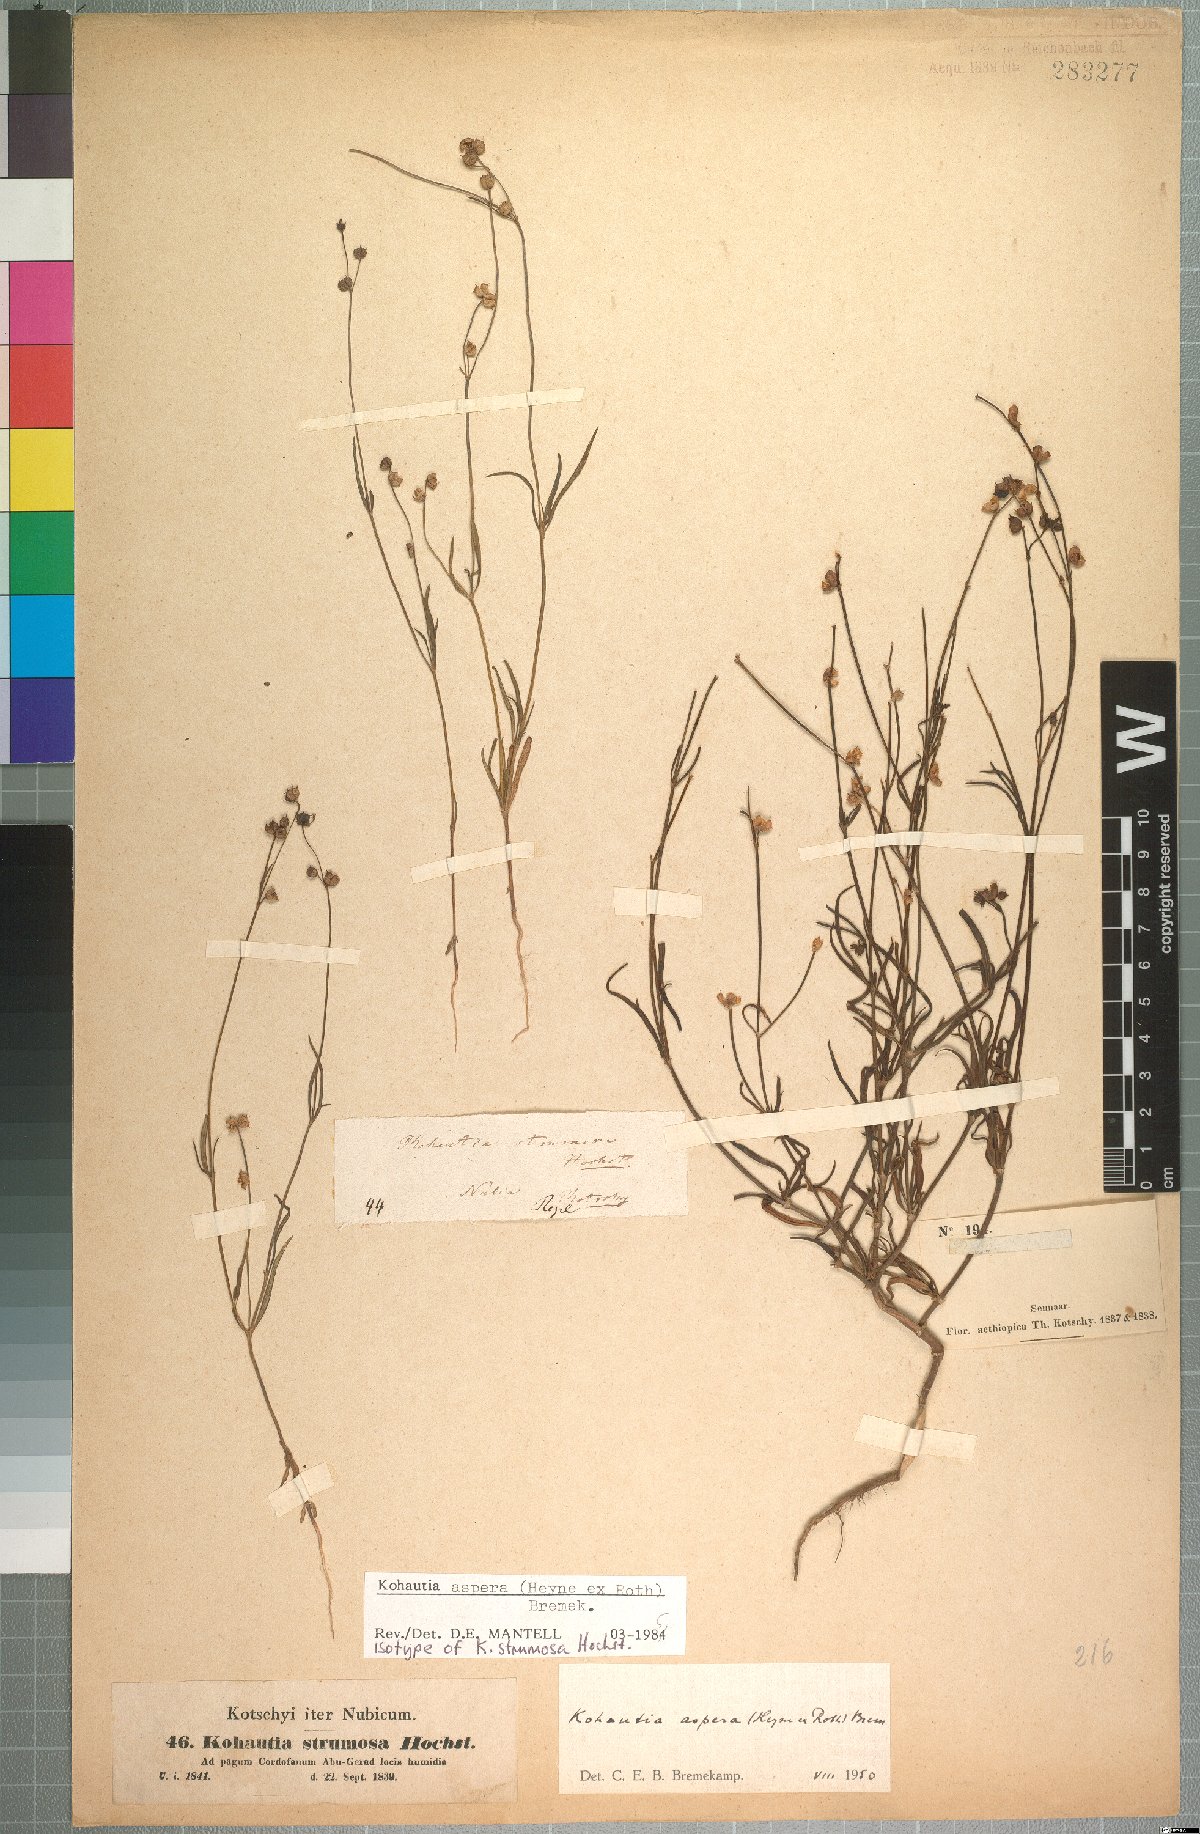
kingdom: Plantae
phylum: Tracheophyta
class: Magnoliopsida
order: Gentianales
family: Rubiaceae
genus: Kohautia
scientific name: Kohautia aspera
